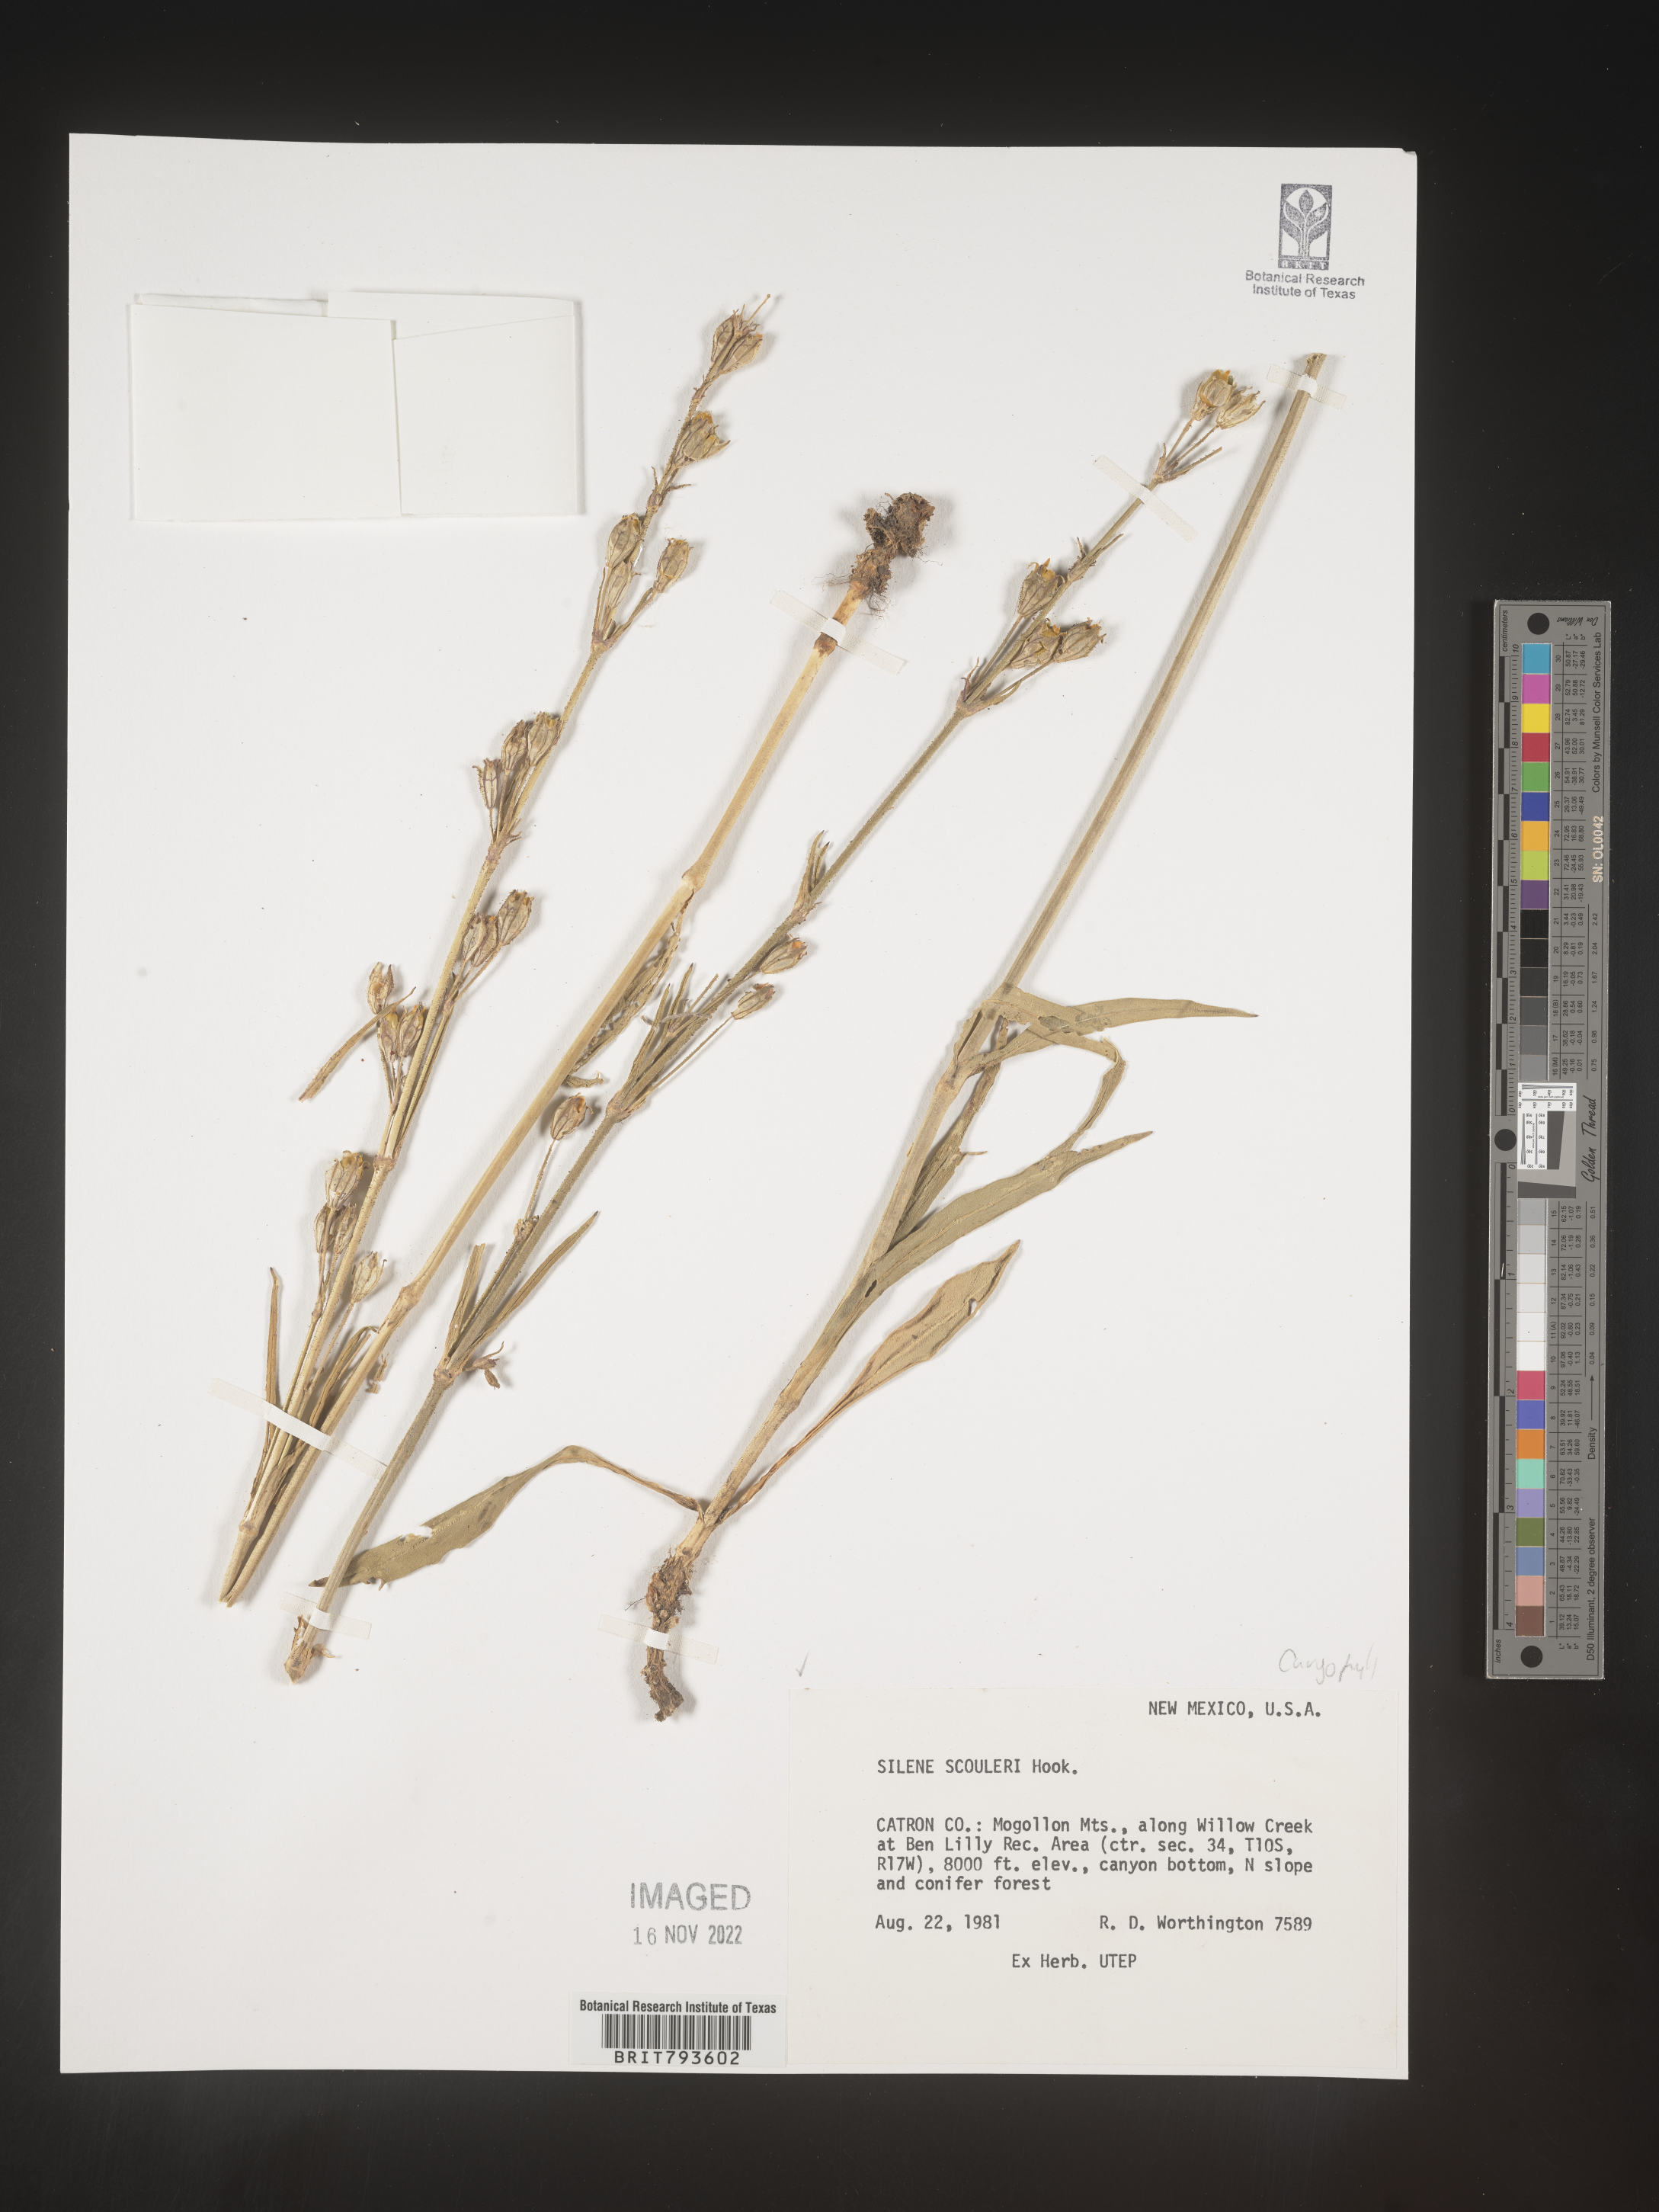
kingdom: Plantae
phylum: Tracheophyta
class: Magnoliopsida
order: Caryophyllales
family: Caryophyllaceae
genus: Silene
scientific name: Silene scouleri
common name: Scouler's campion
